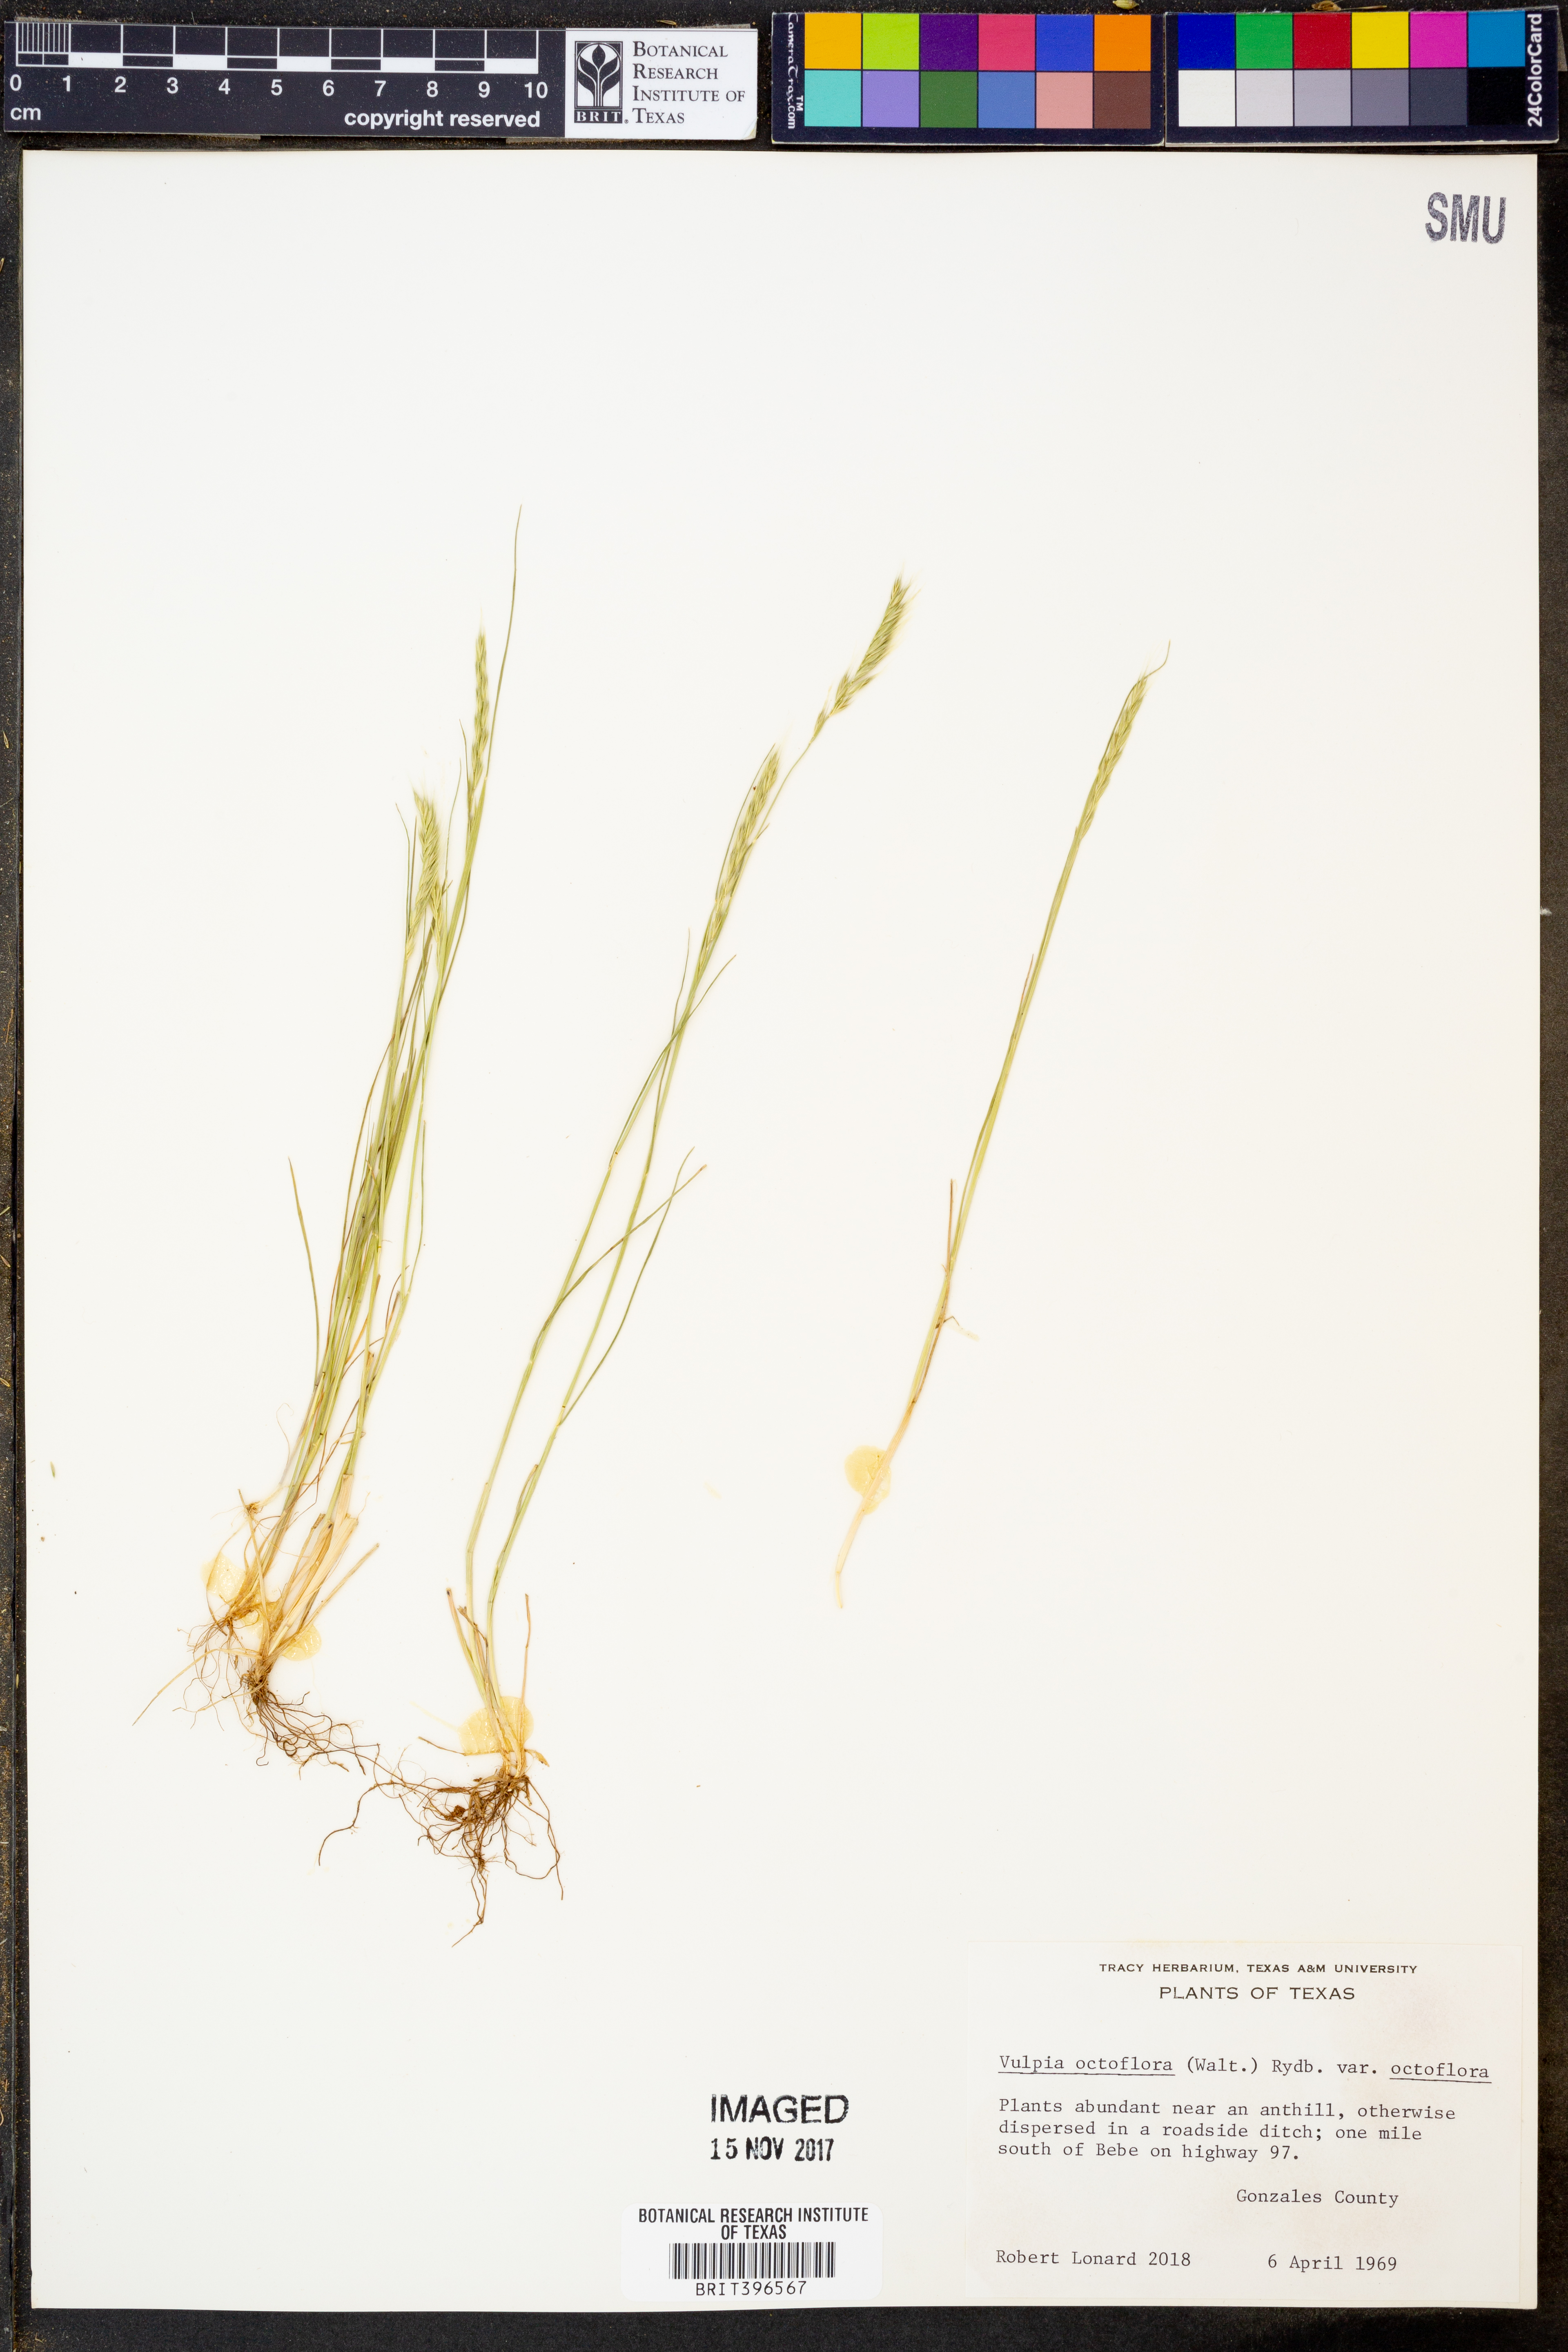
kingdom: Plantae
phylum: Tracheophyta
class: Liliopsida
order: Poales
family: Poaceae
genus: Festuca
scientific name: Festuca octoflora
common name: Sixweeks grass
